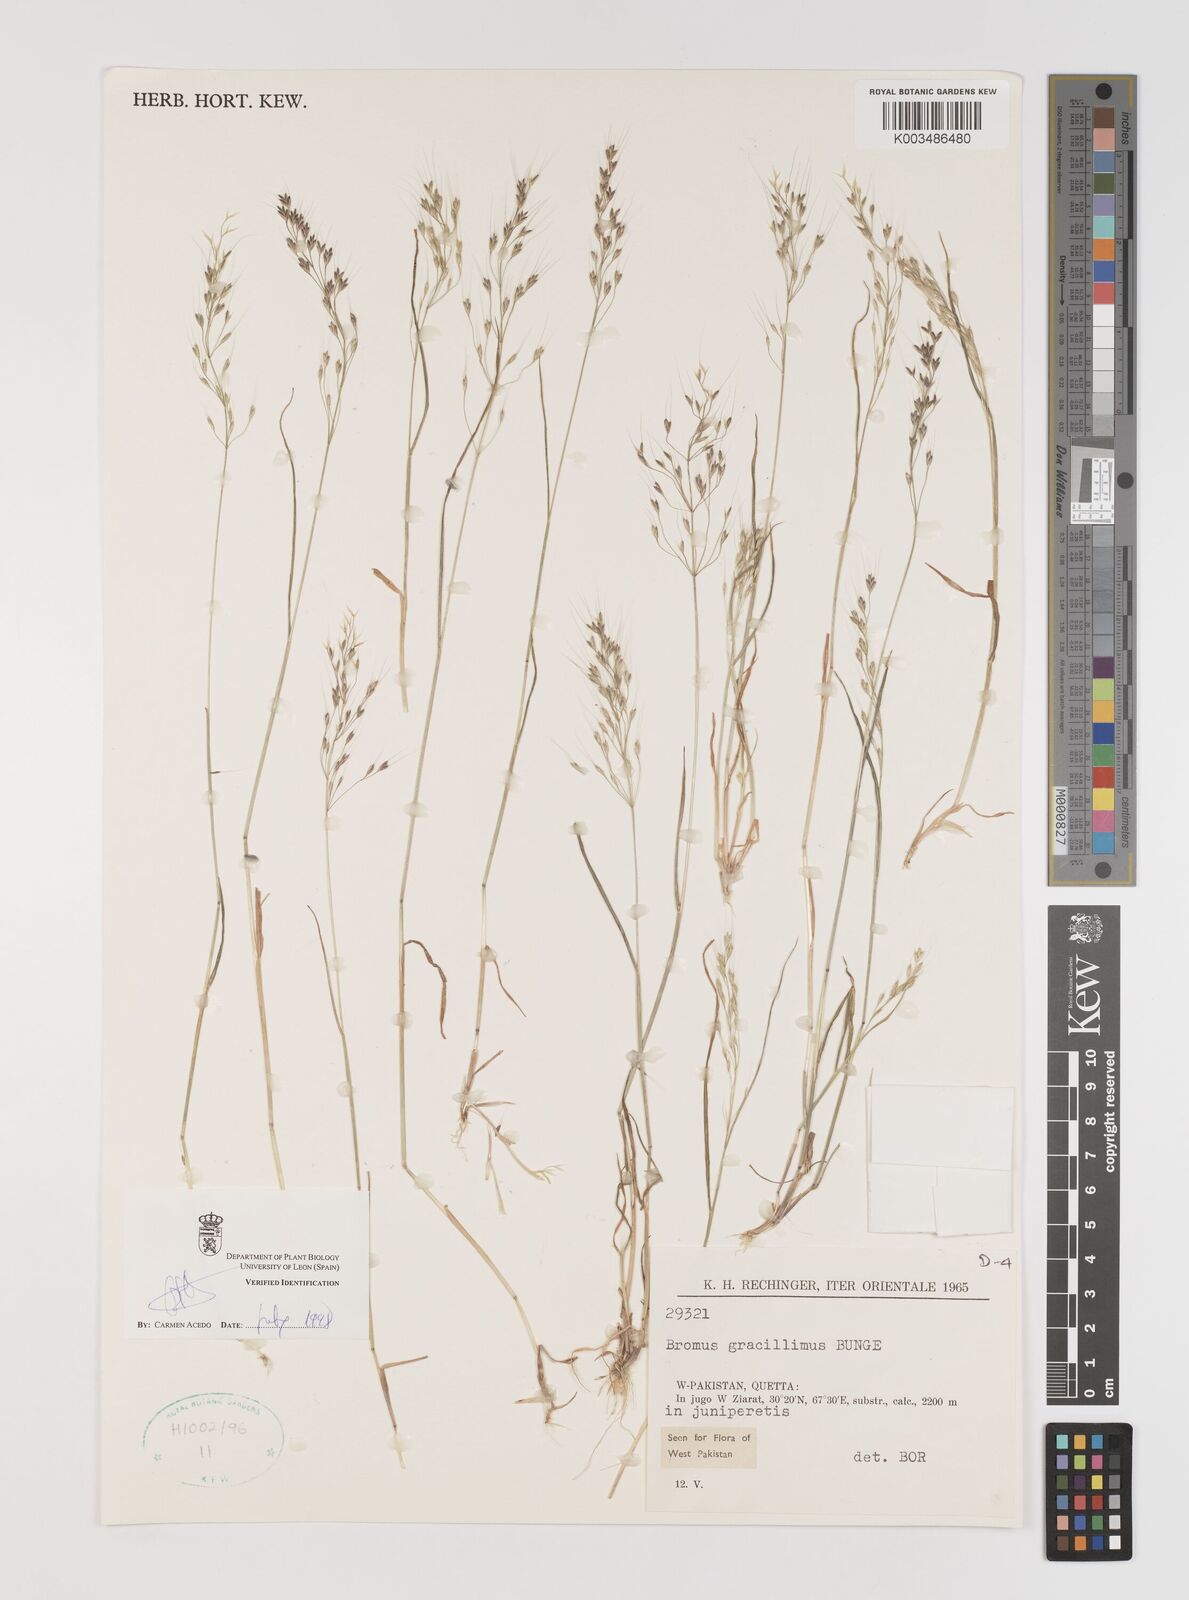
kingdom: Plantae
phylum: Tracheophyta
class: Liliopsida
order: Poales
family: Poaceae
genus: Bromus
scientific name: Bromus gracillimus
